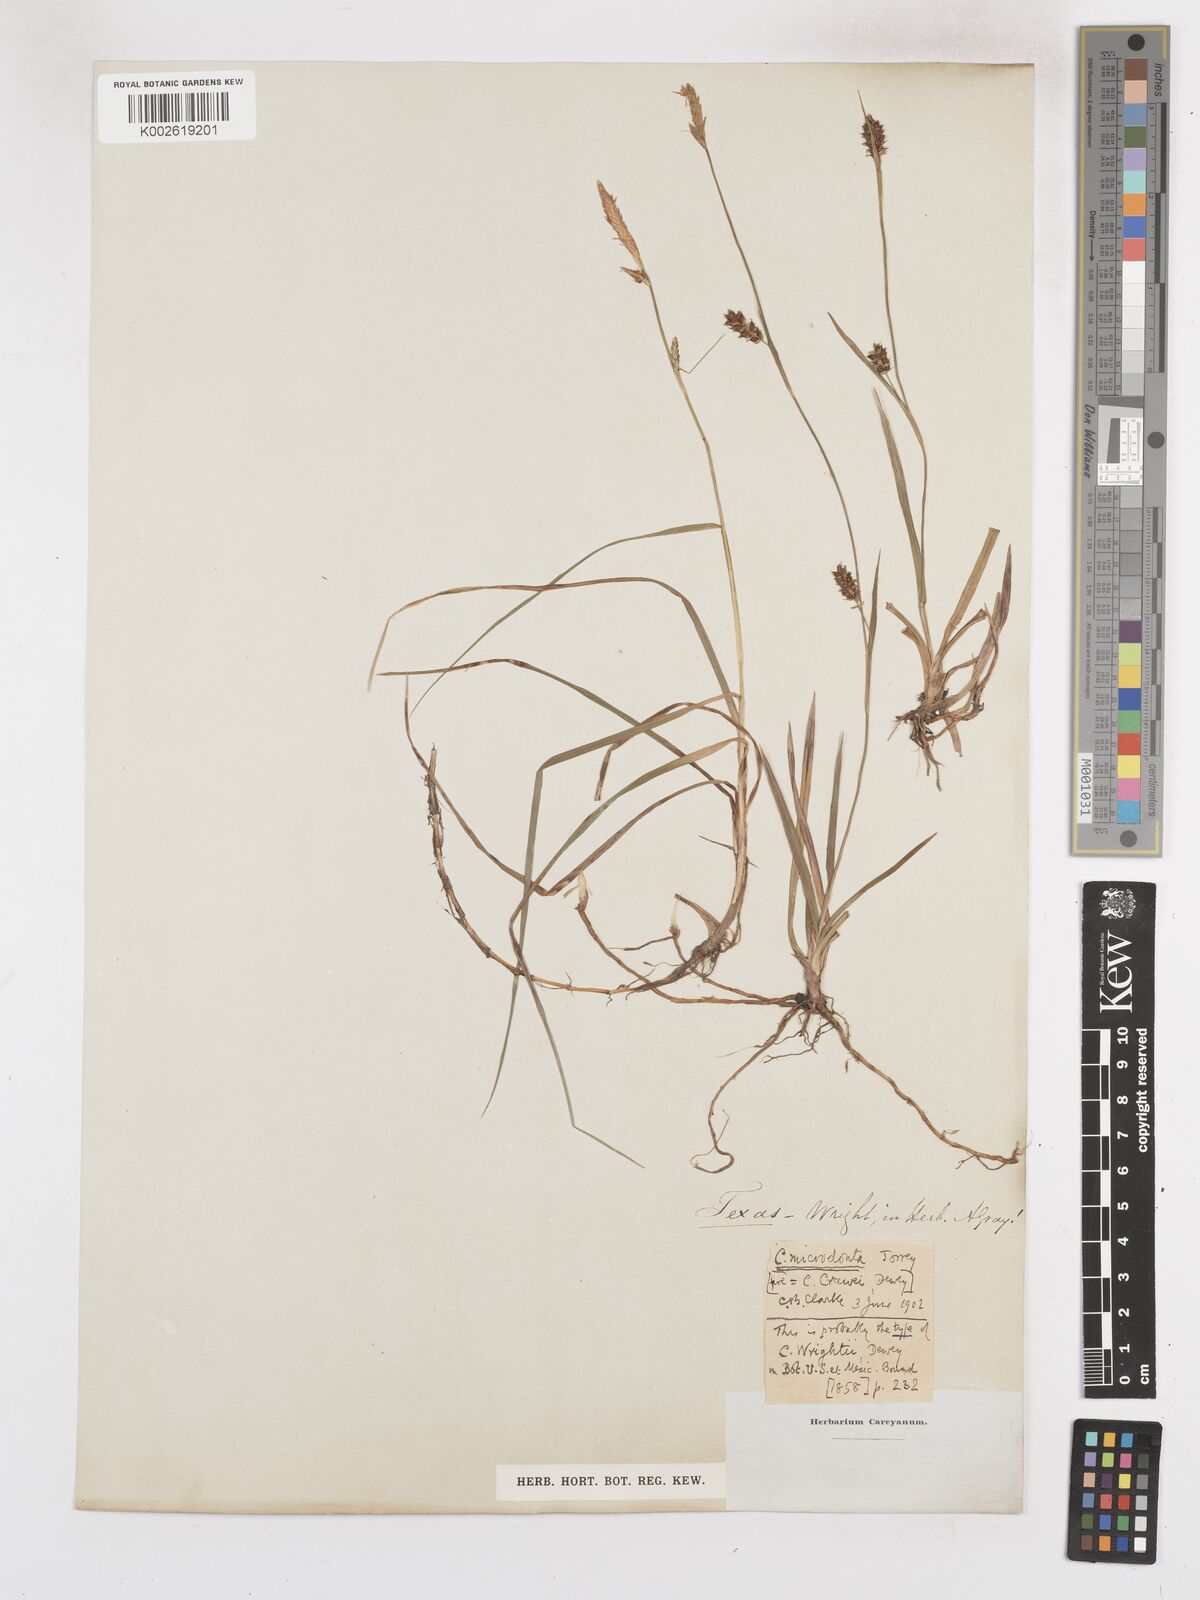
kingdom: Plantae
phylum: Tracheophyta
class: Liliopsida
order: Poales
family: Cyperaceae
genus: Carex
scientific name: Carex microdonta
